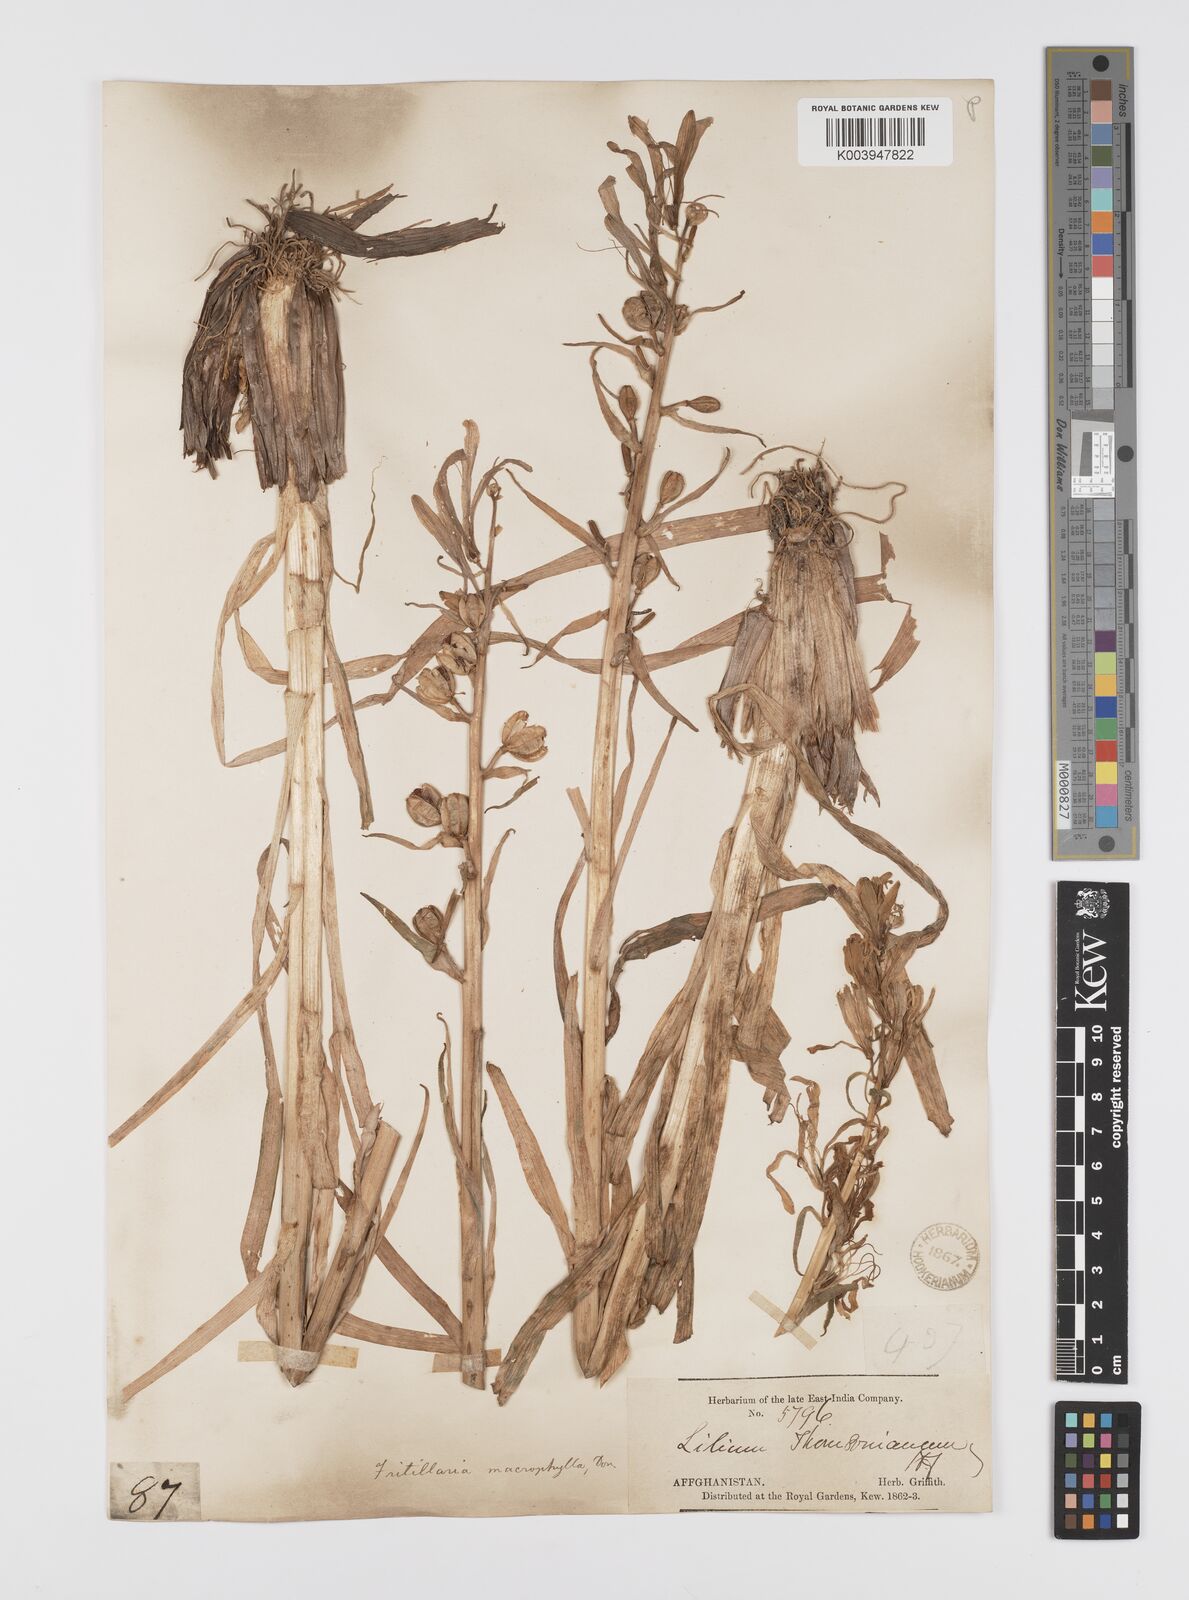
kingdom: Plantae
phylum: Tracheophyta
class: Liliopsida
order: Liliales
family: Liliaceae
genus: Notholirion
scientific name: Notholirion thomsonianum
